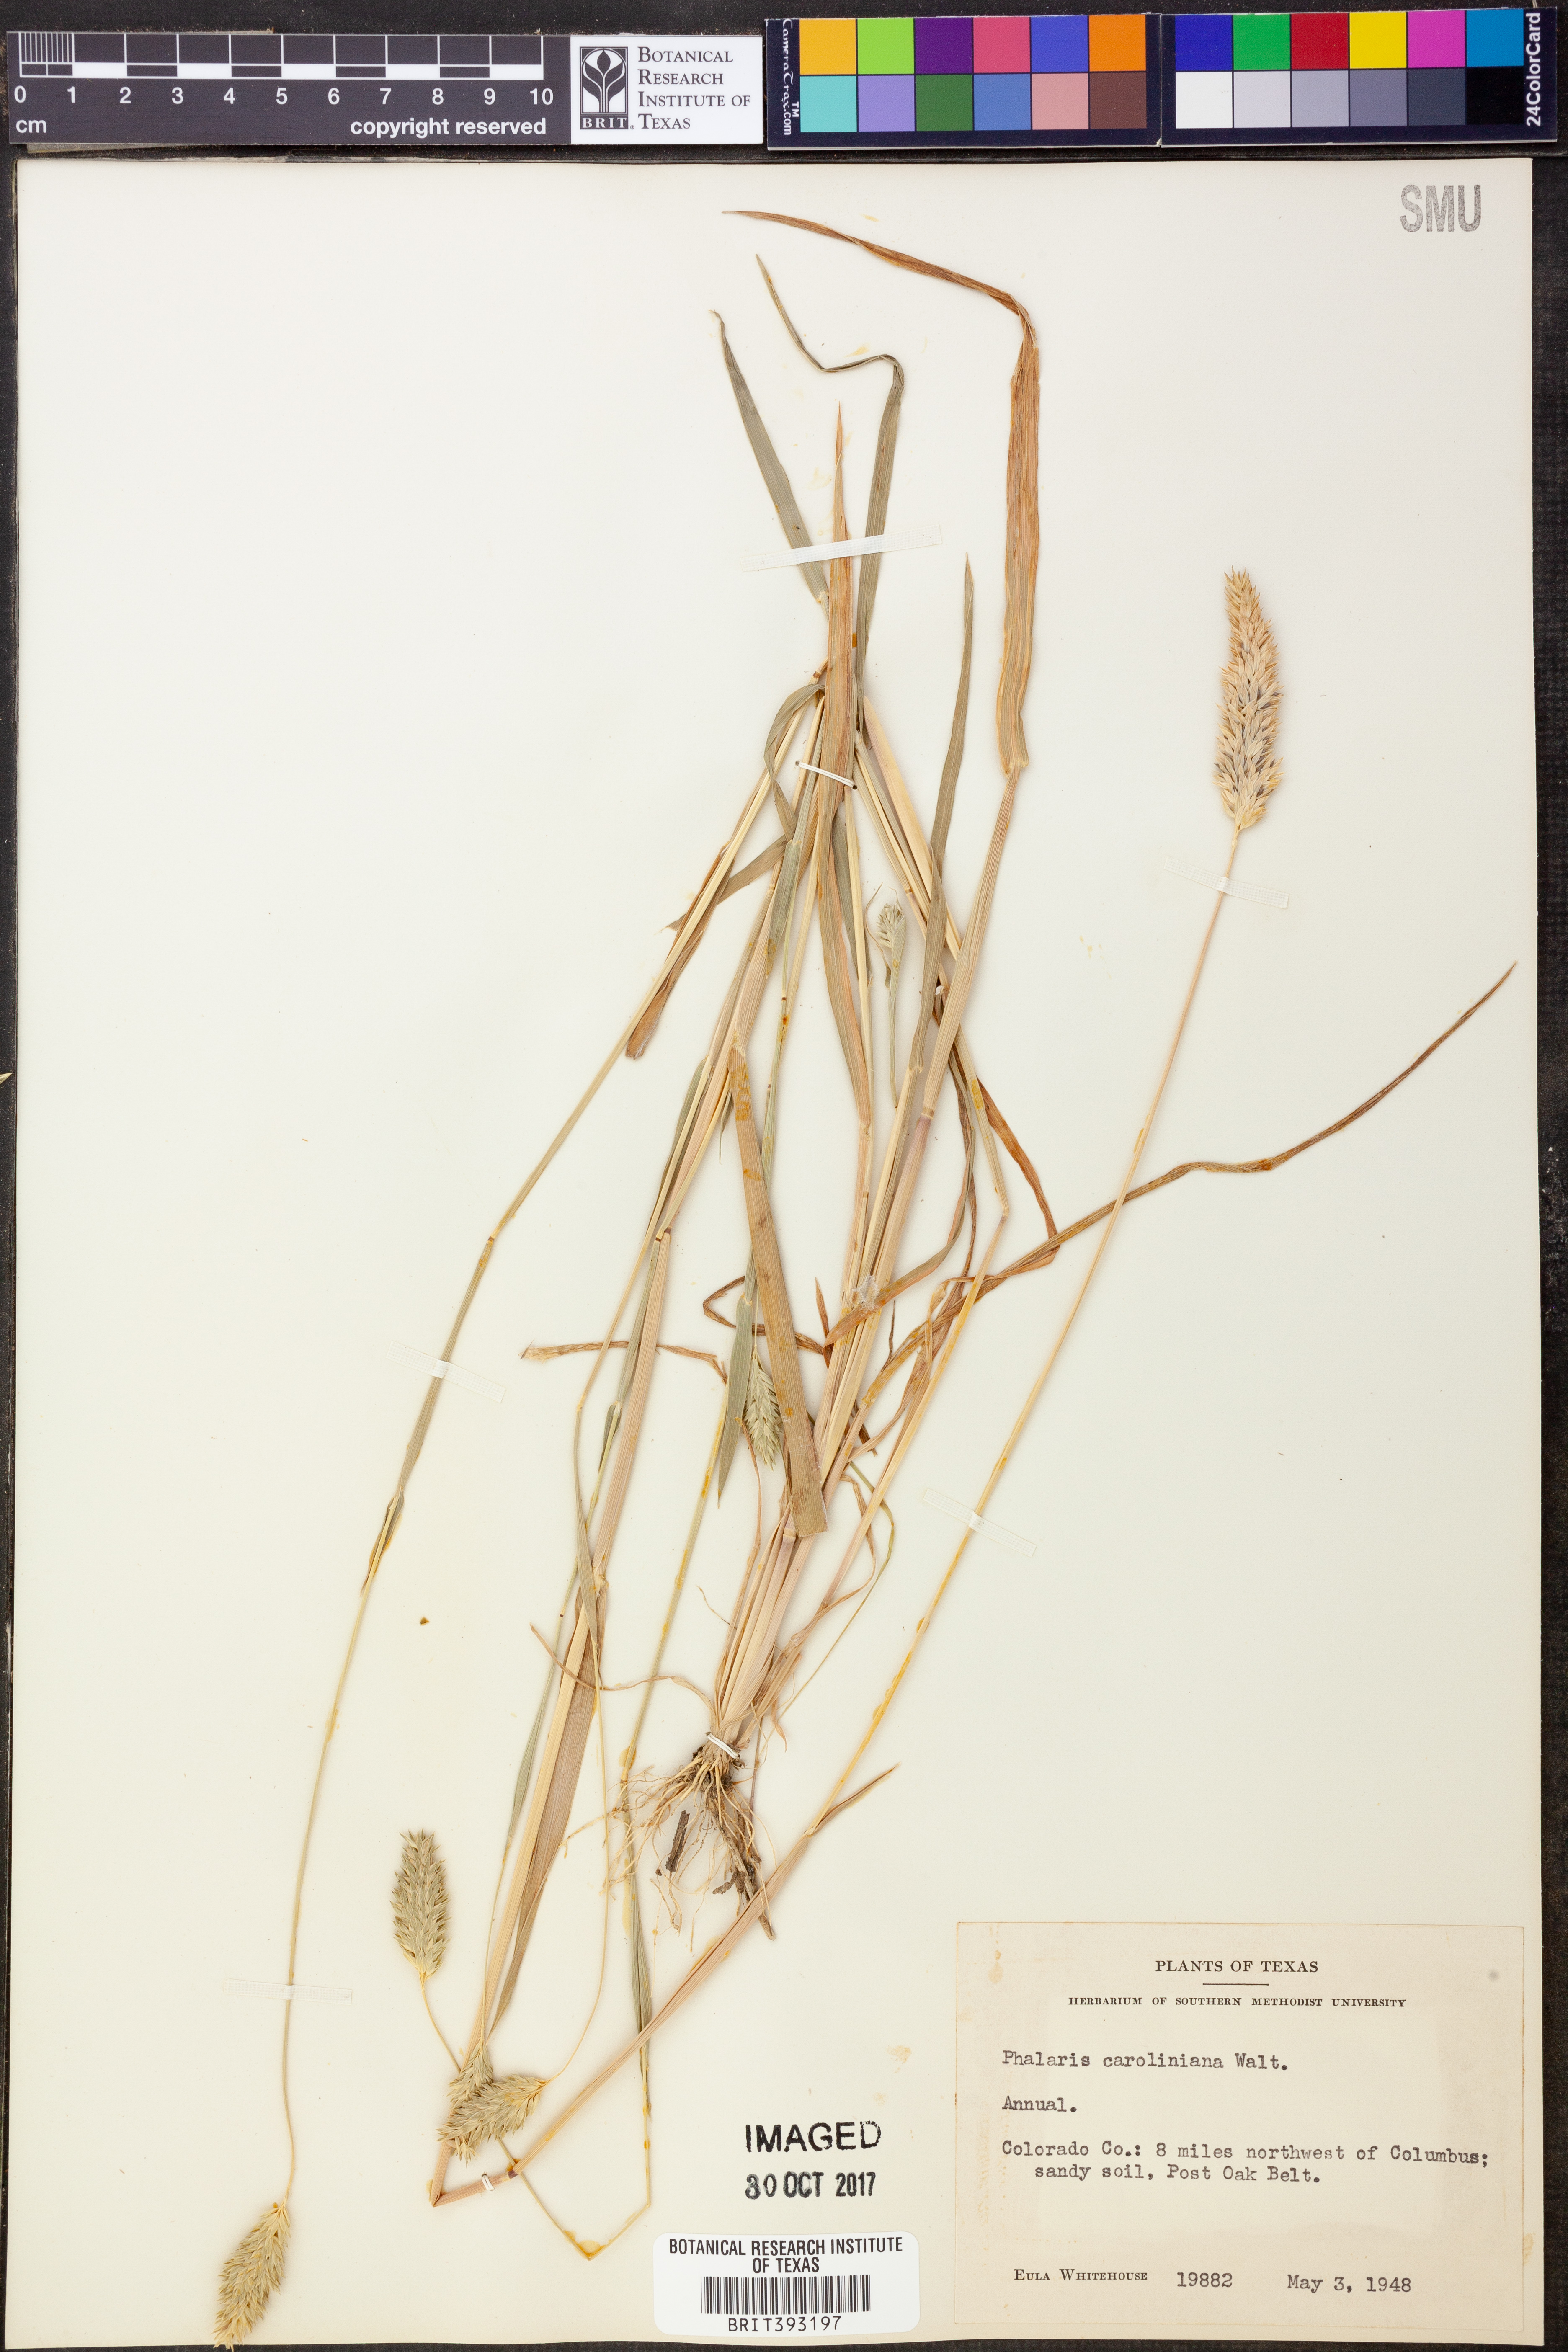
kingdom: Plantae
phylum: Tracheophyta
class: Liliopsida
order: Poales
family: Poaceae
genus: Phalaris
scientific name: Phalaris caroliniana
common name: May grass
